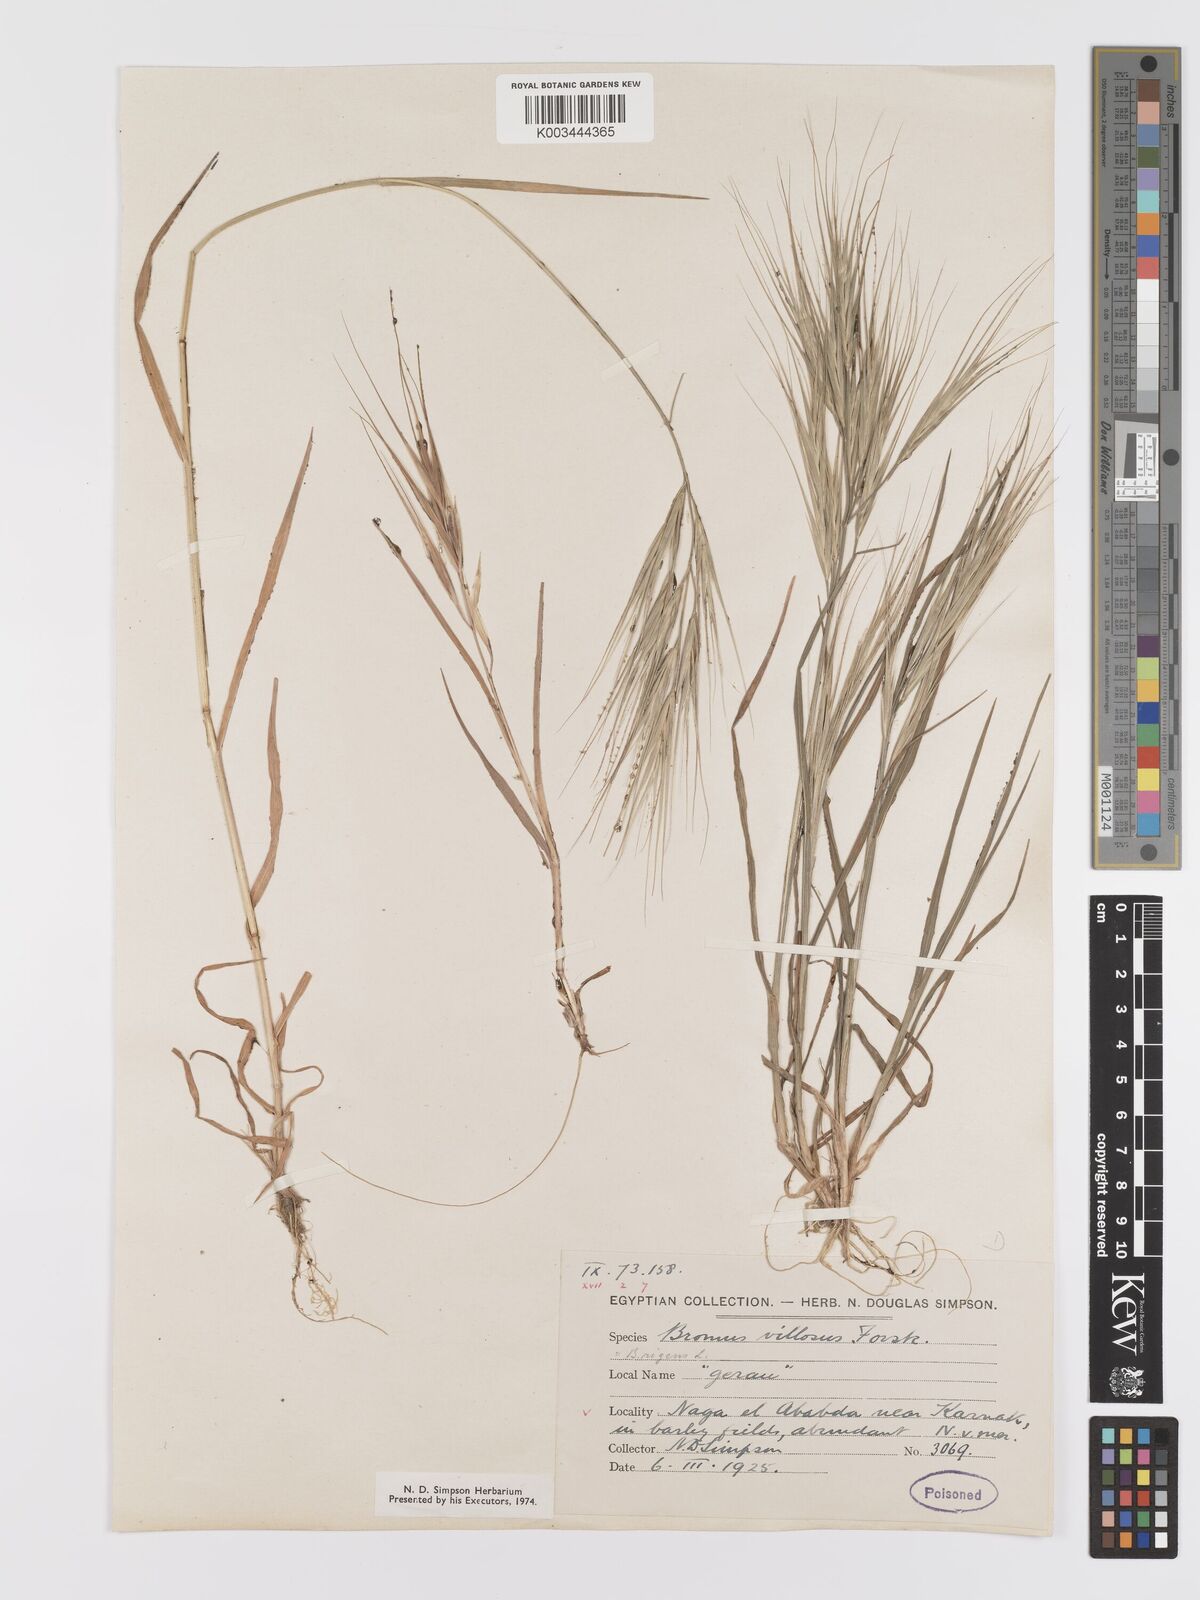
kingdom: Plantae
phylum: Tracheophyta
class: Liliopsida
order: Poales
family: Poaceae
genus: Bromus
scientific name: Bromus diandrus
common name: Ripgut brome
